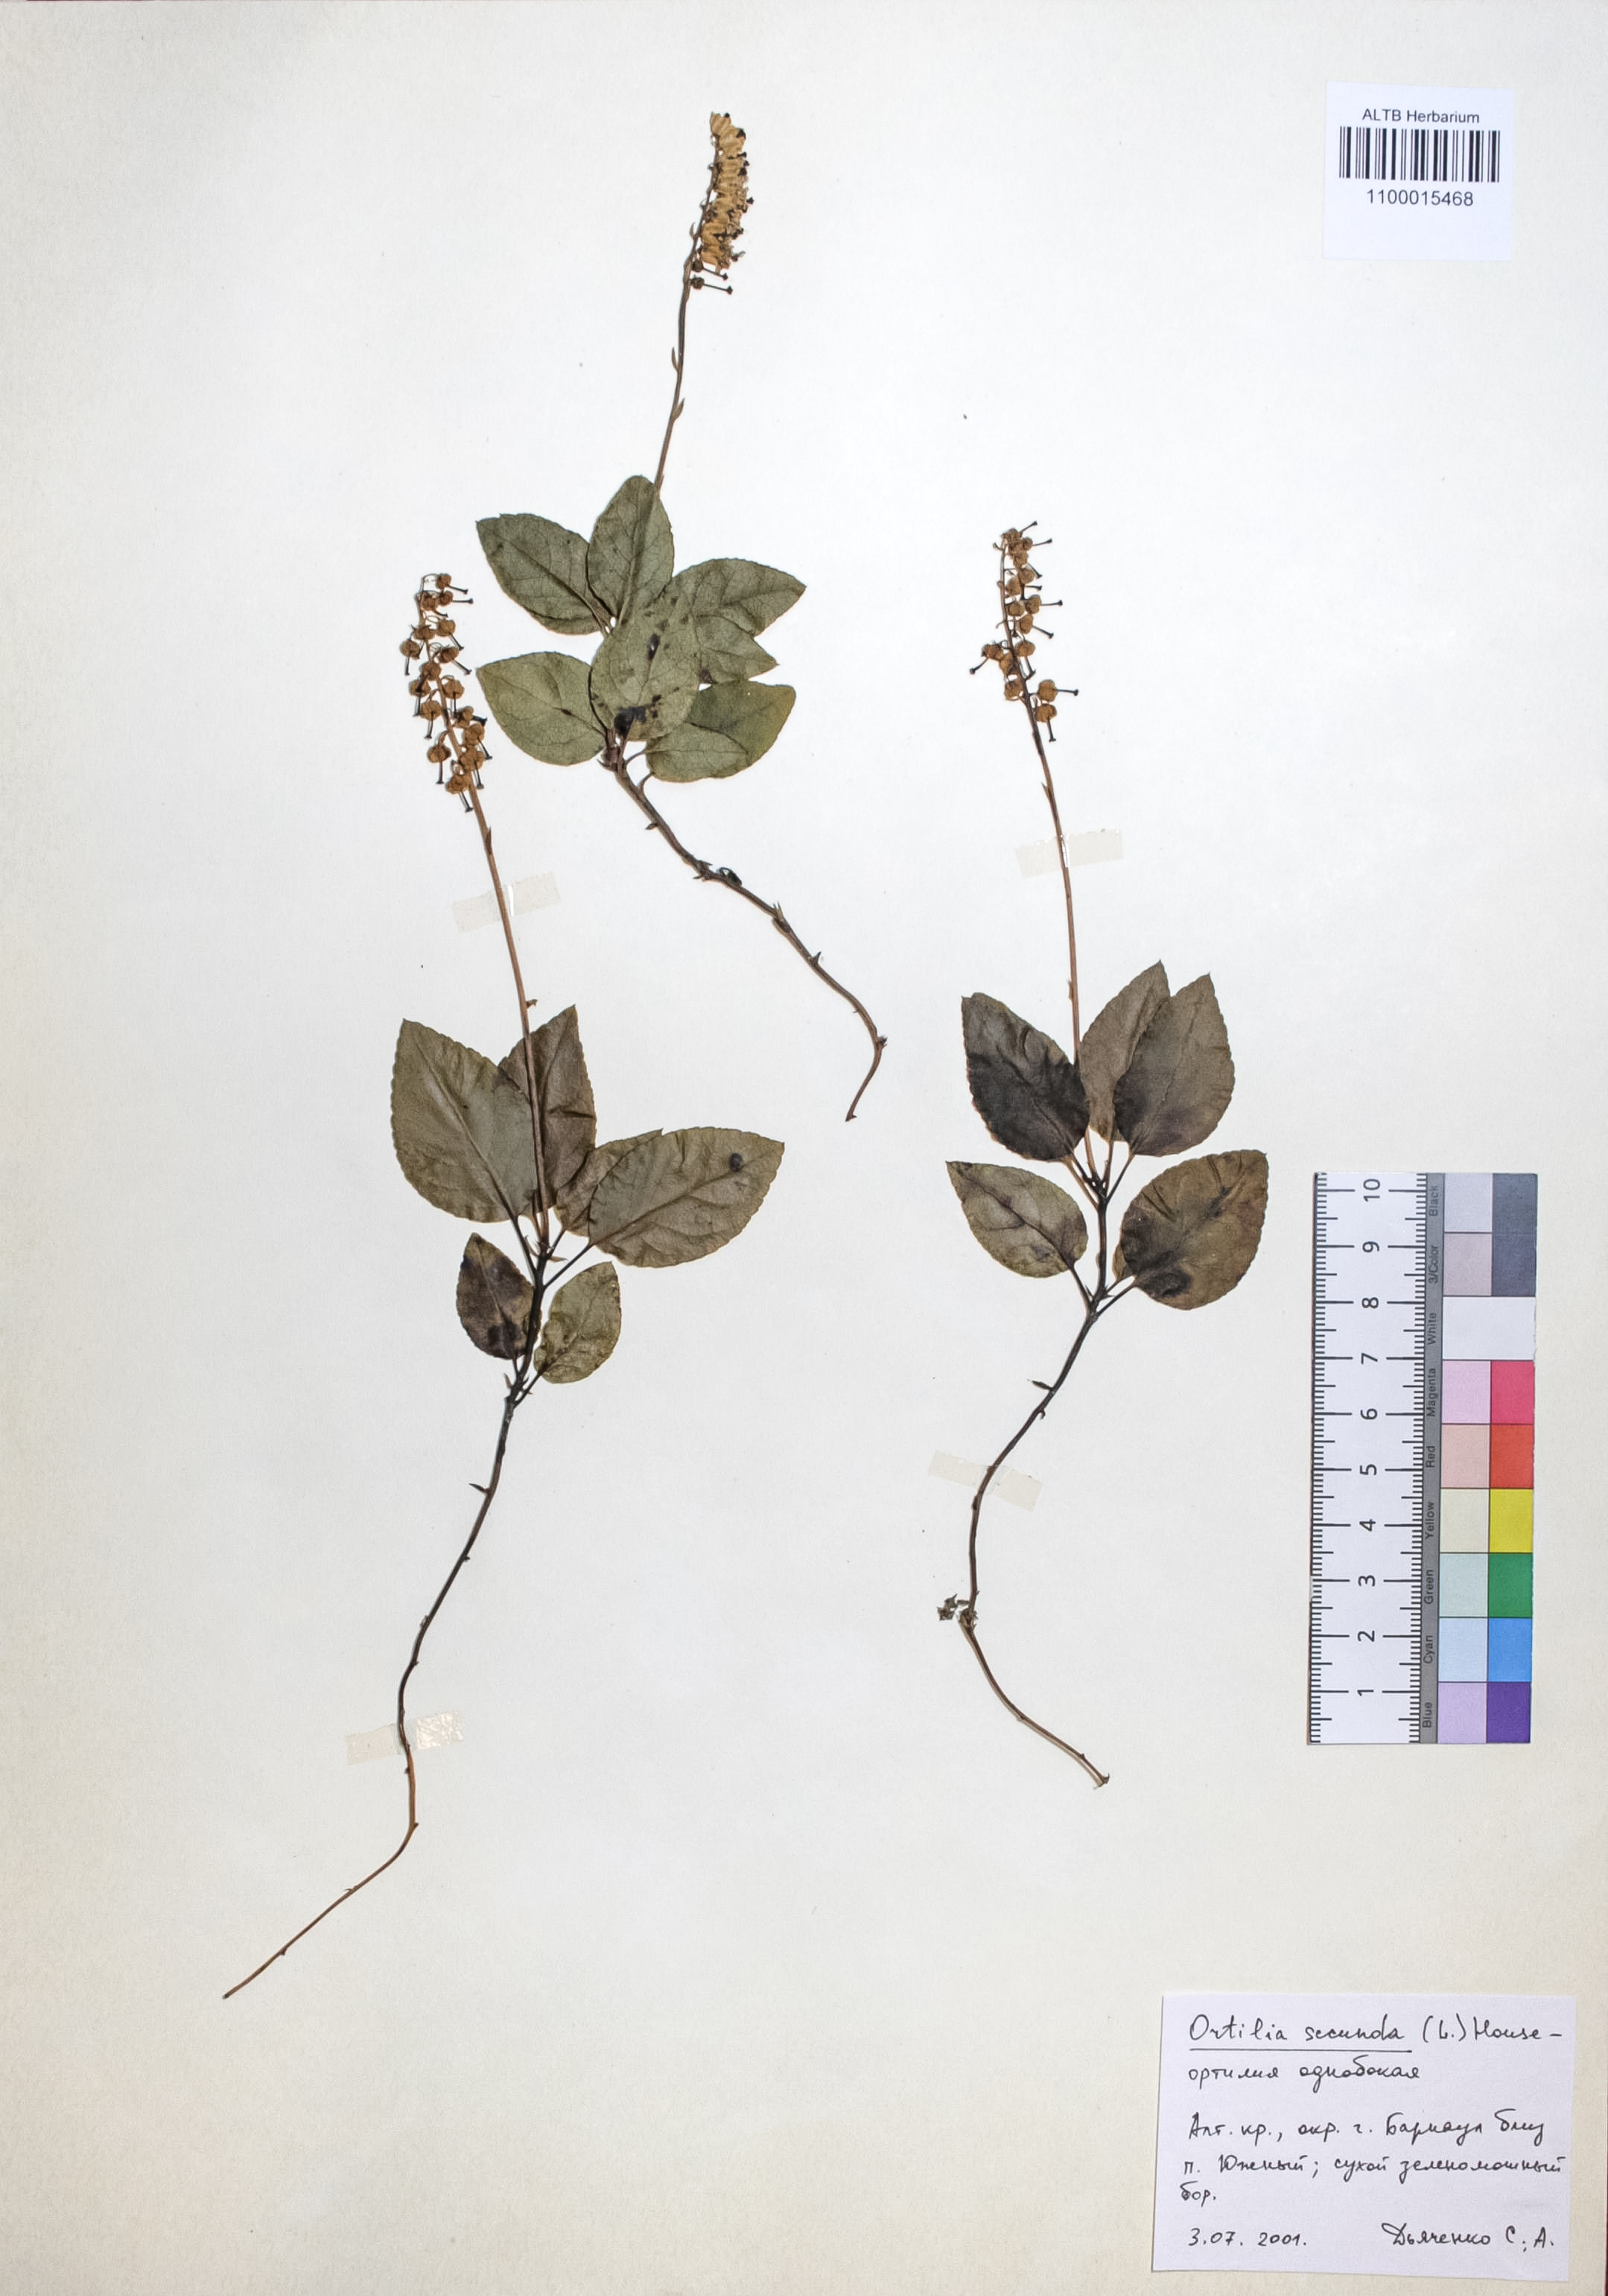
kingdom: Plantae
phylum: Tracheophyta
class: Magnoliopsida
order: Ericales
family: Ericaceae
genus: Orthilia
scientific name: Orthilia secunda
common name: One-sided orthilia
